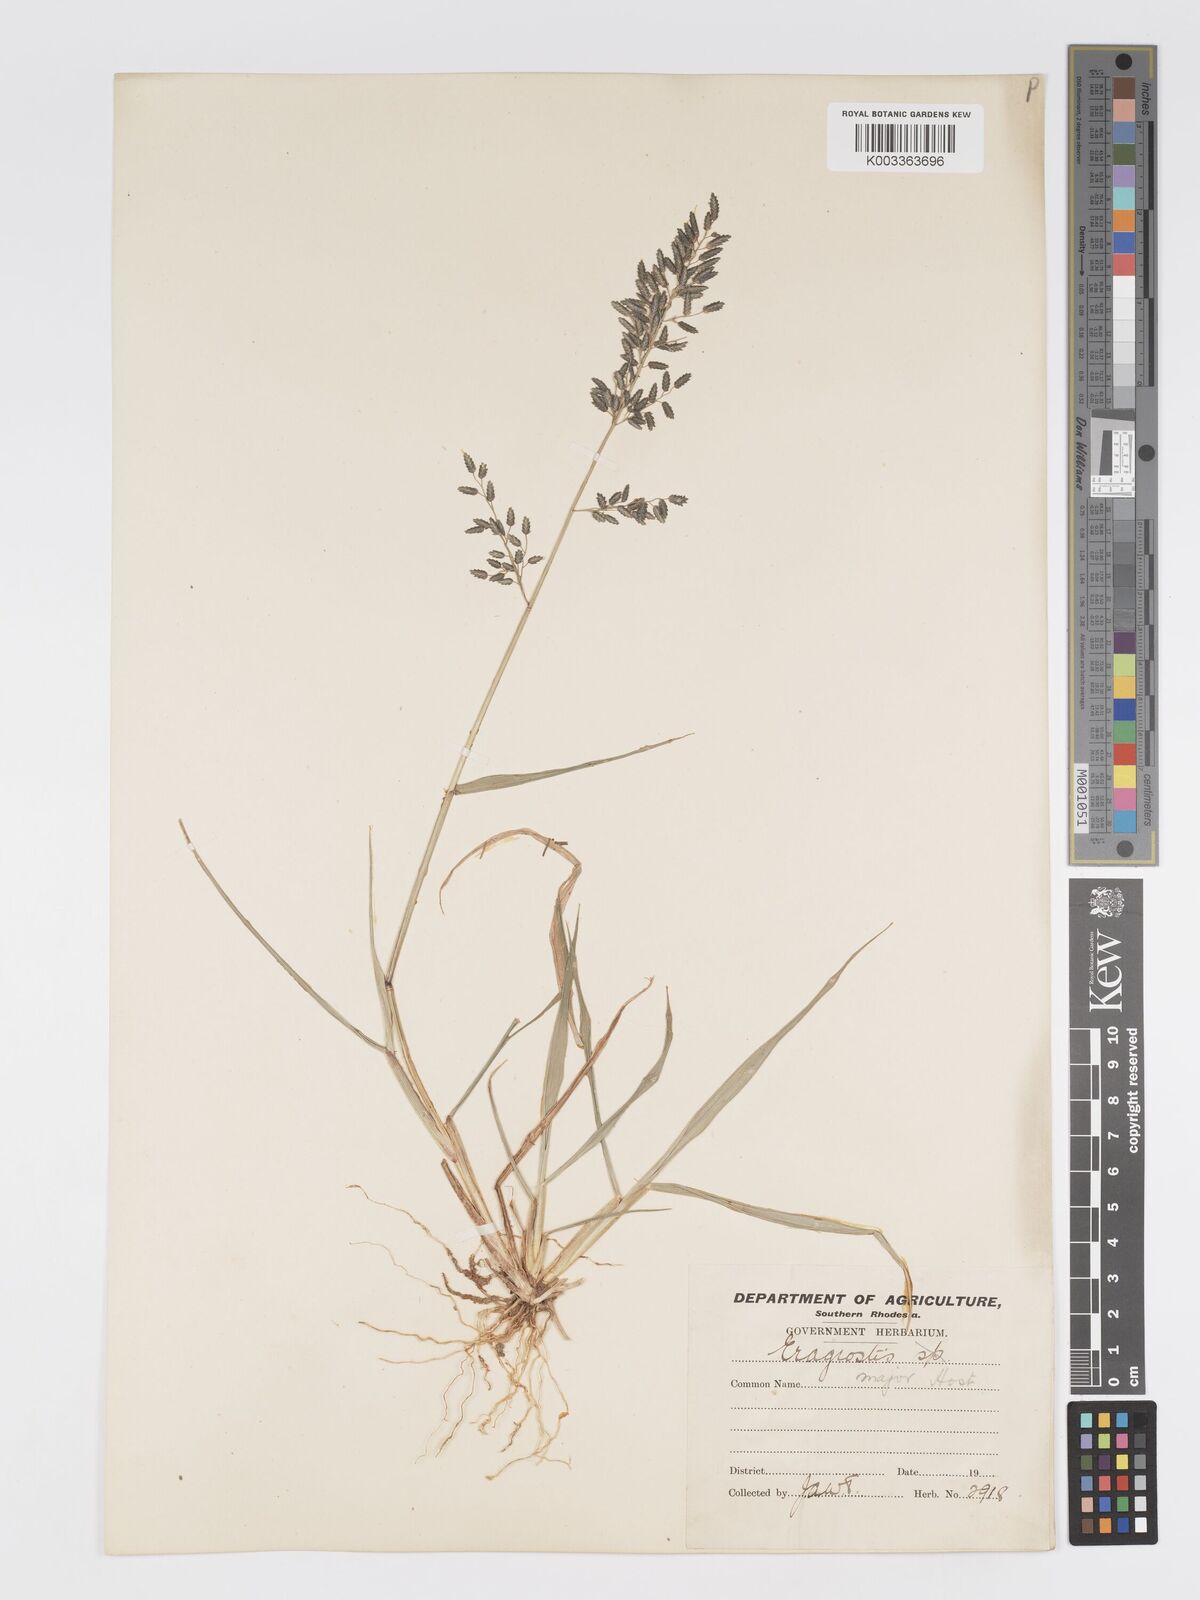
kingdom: Plantae
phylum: Tracheophyta
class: Liliopsida
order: Poales
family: Poaceae
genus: Eragrostis
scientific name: Eragrostis cilianensis
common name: Stinkgrass
